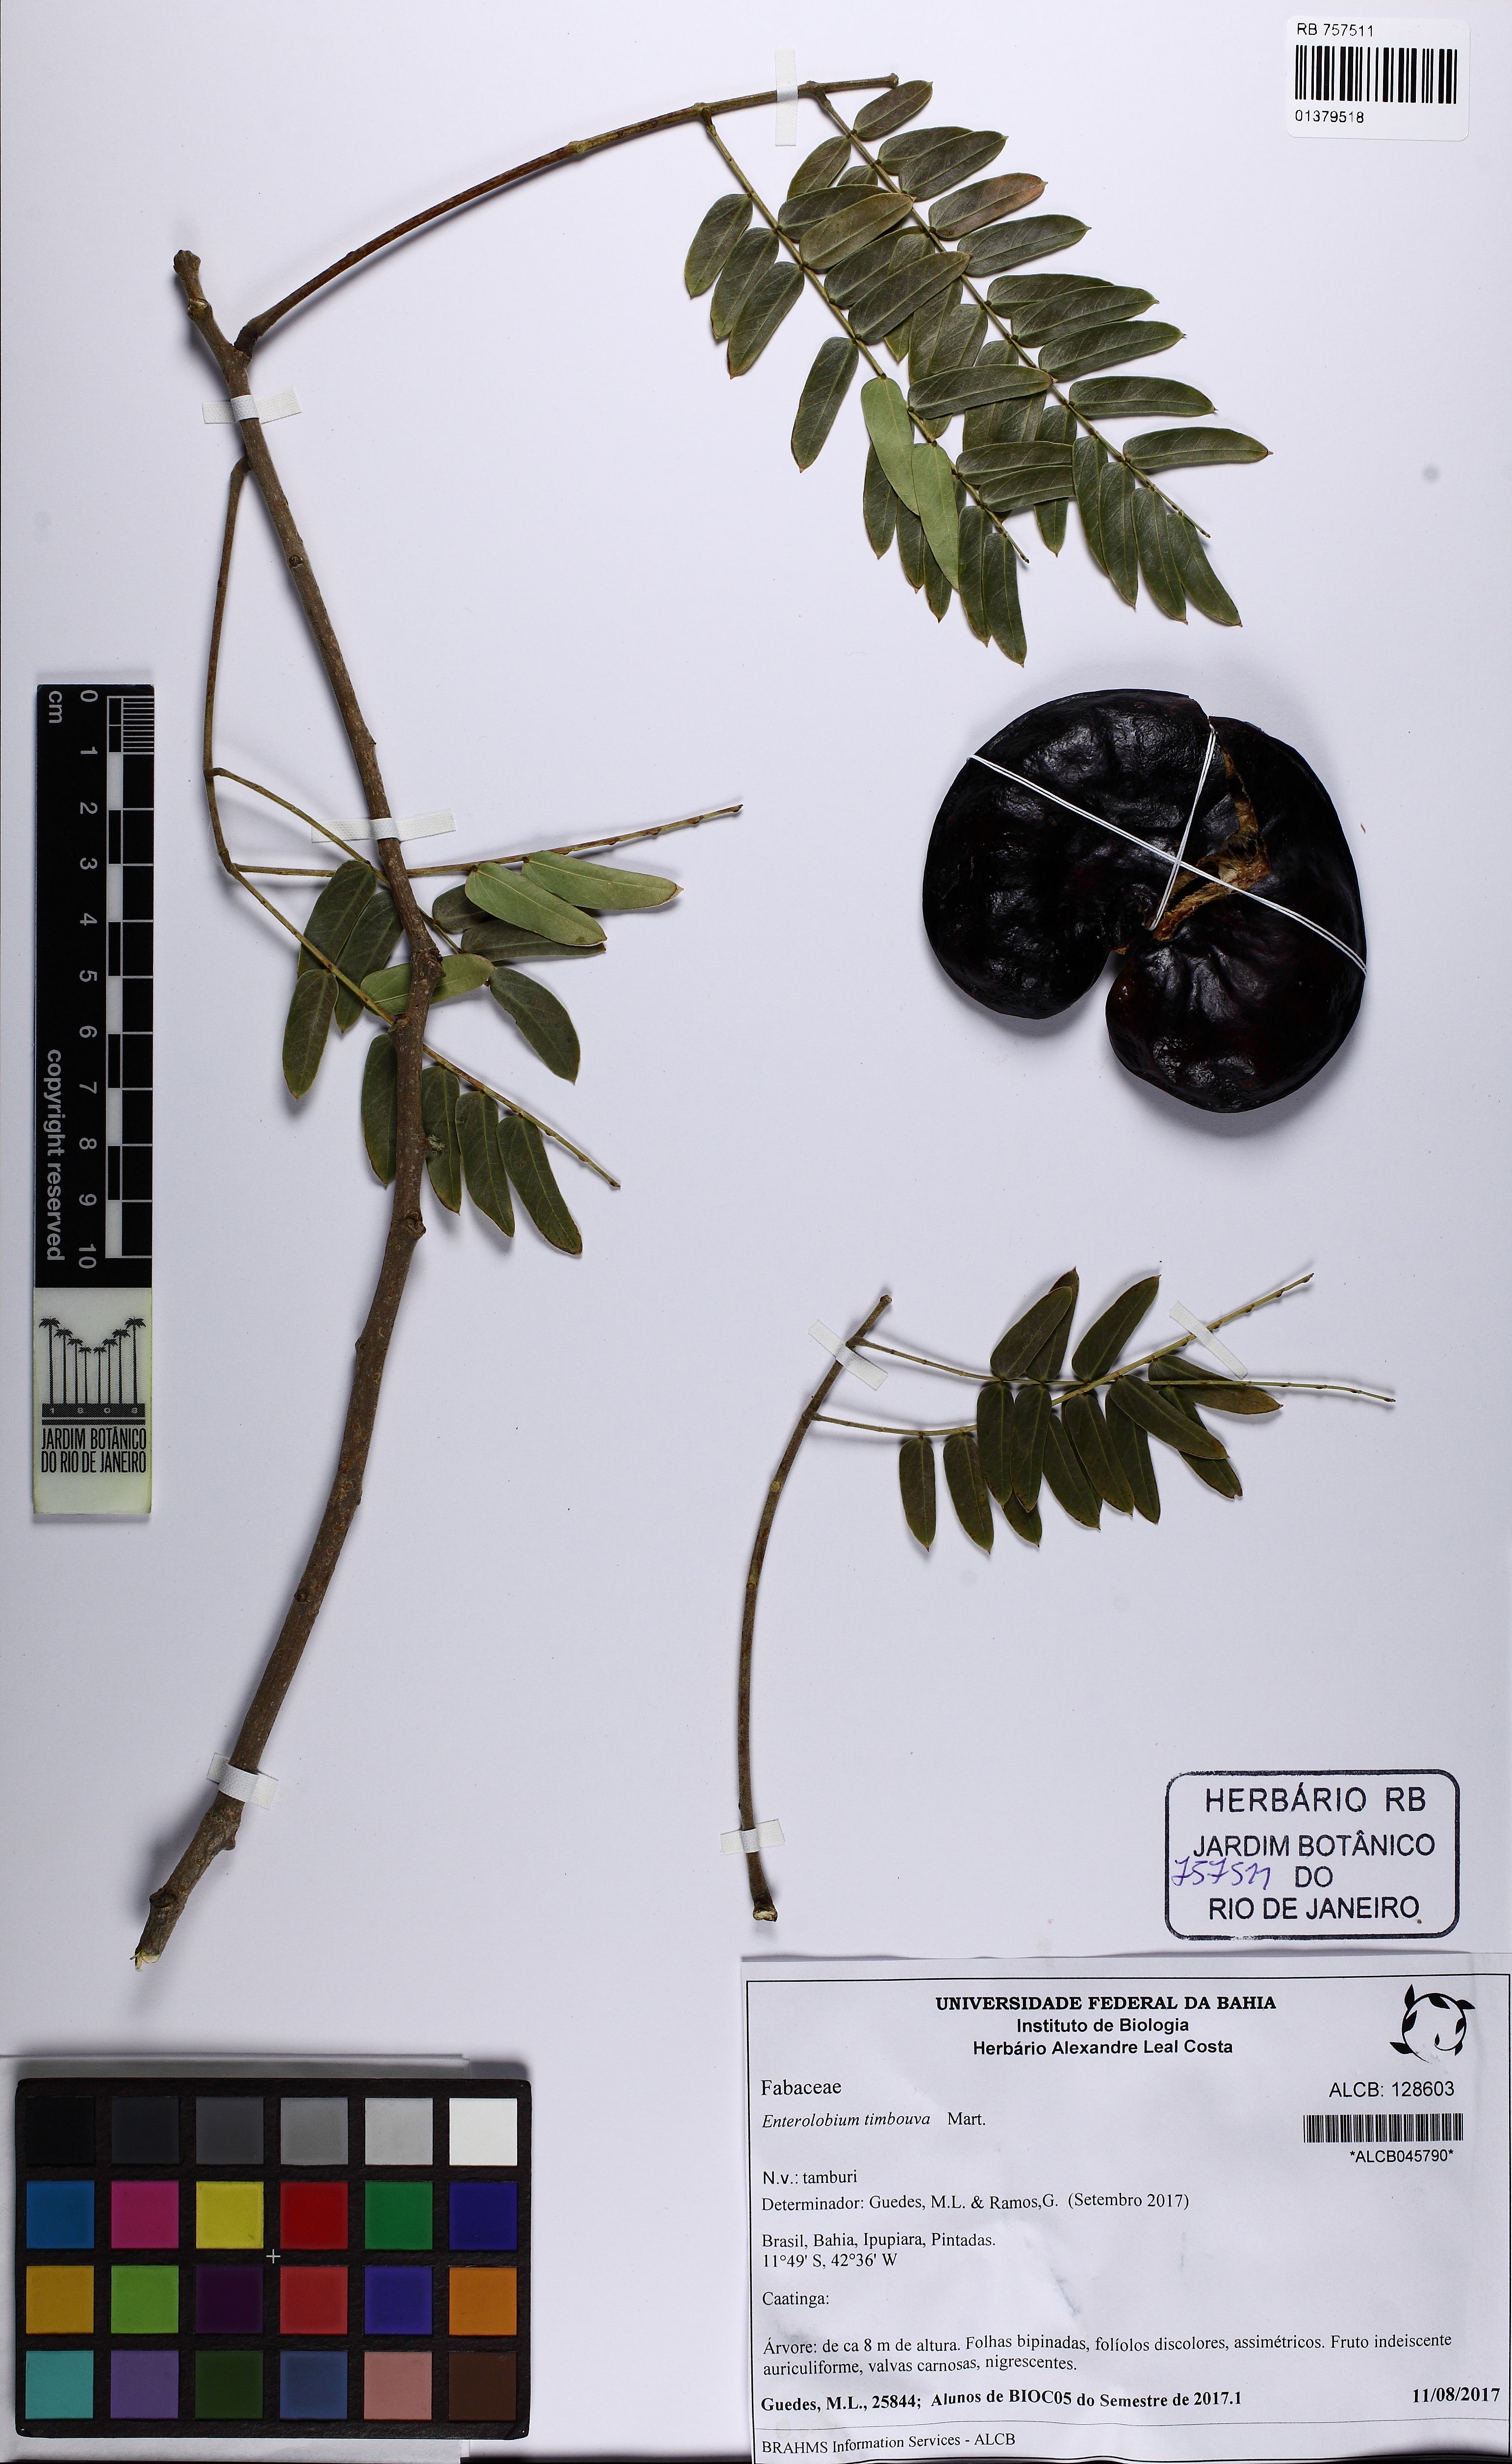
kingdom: Plantae
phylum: Tracheophyta
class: Magnoliopsida
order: Fabales
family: Fabaceae
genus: Enterolobium
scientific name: Enterolobium timbouva
